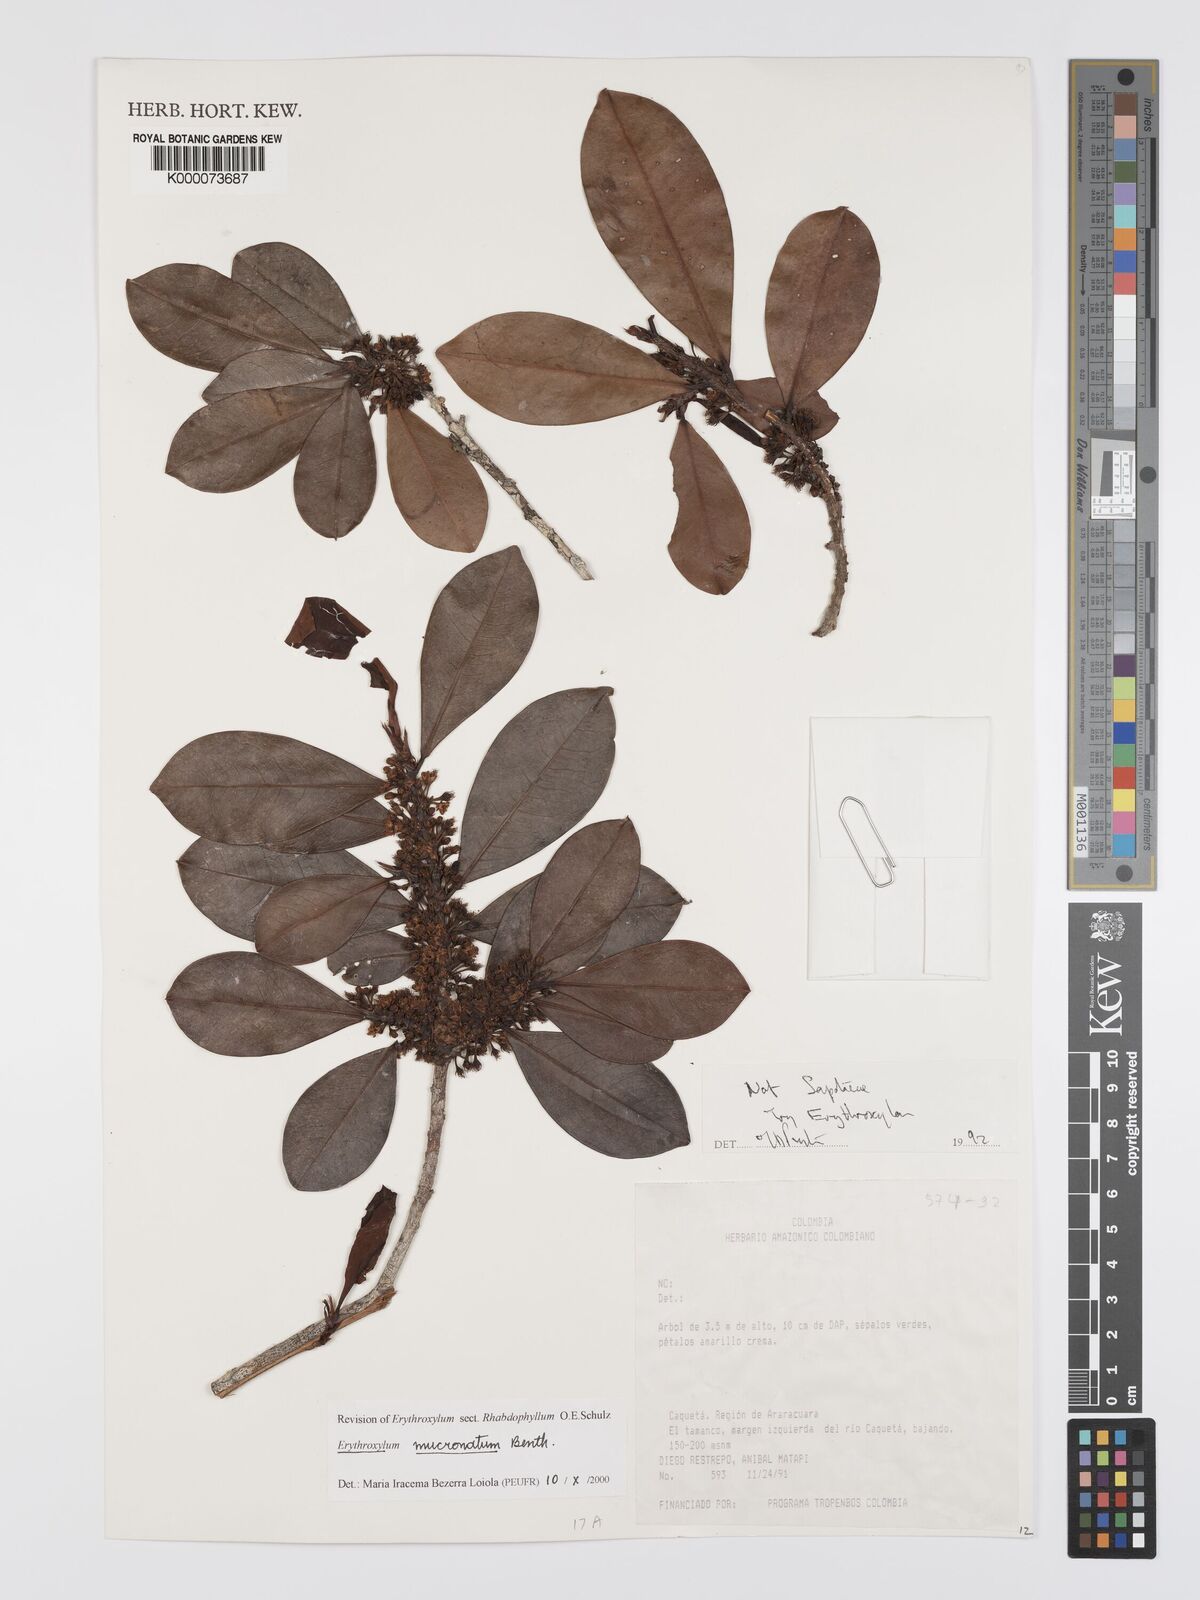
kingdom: Plantae
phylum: Tracheophyta
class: Magnoliopsida
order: Malpighiales
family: Erythroxylaceae
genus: Erythroxylum
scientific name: Erythroxylum mucronatum
